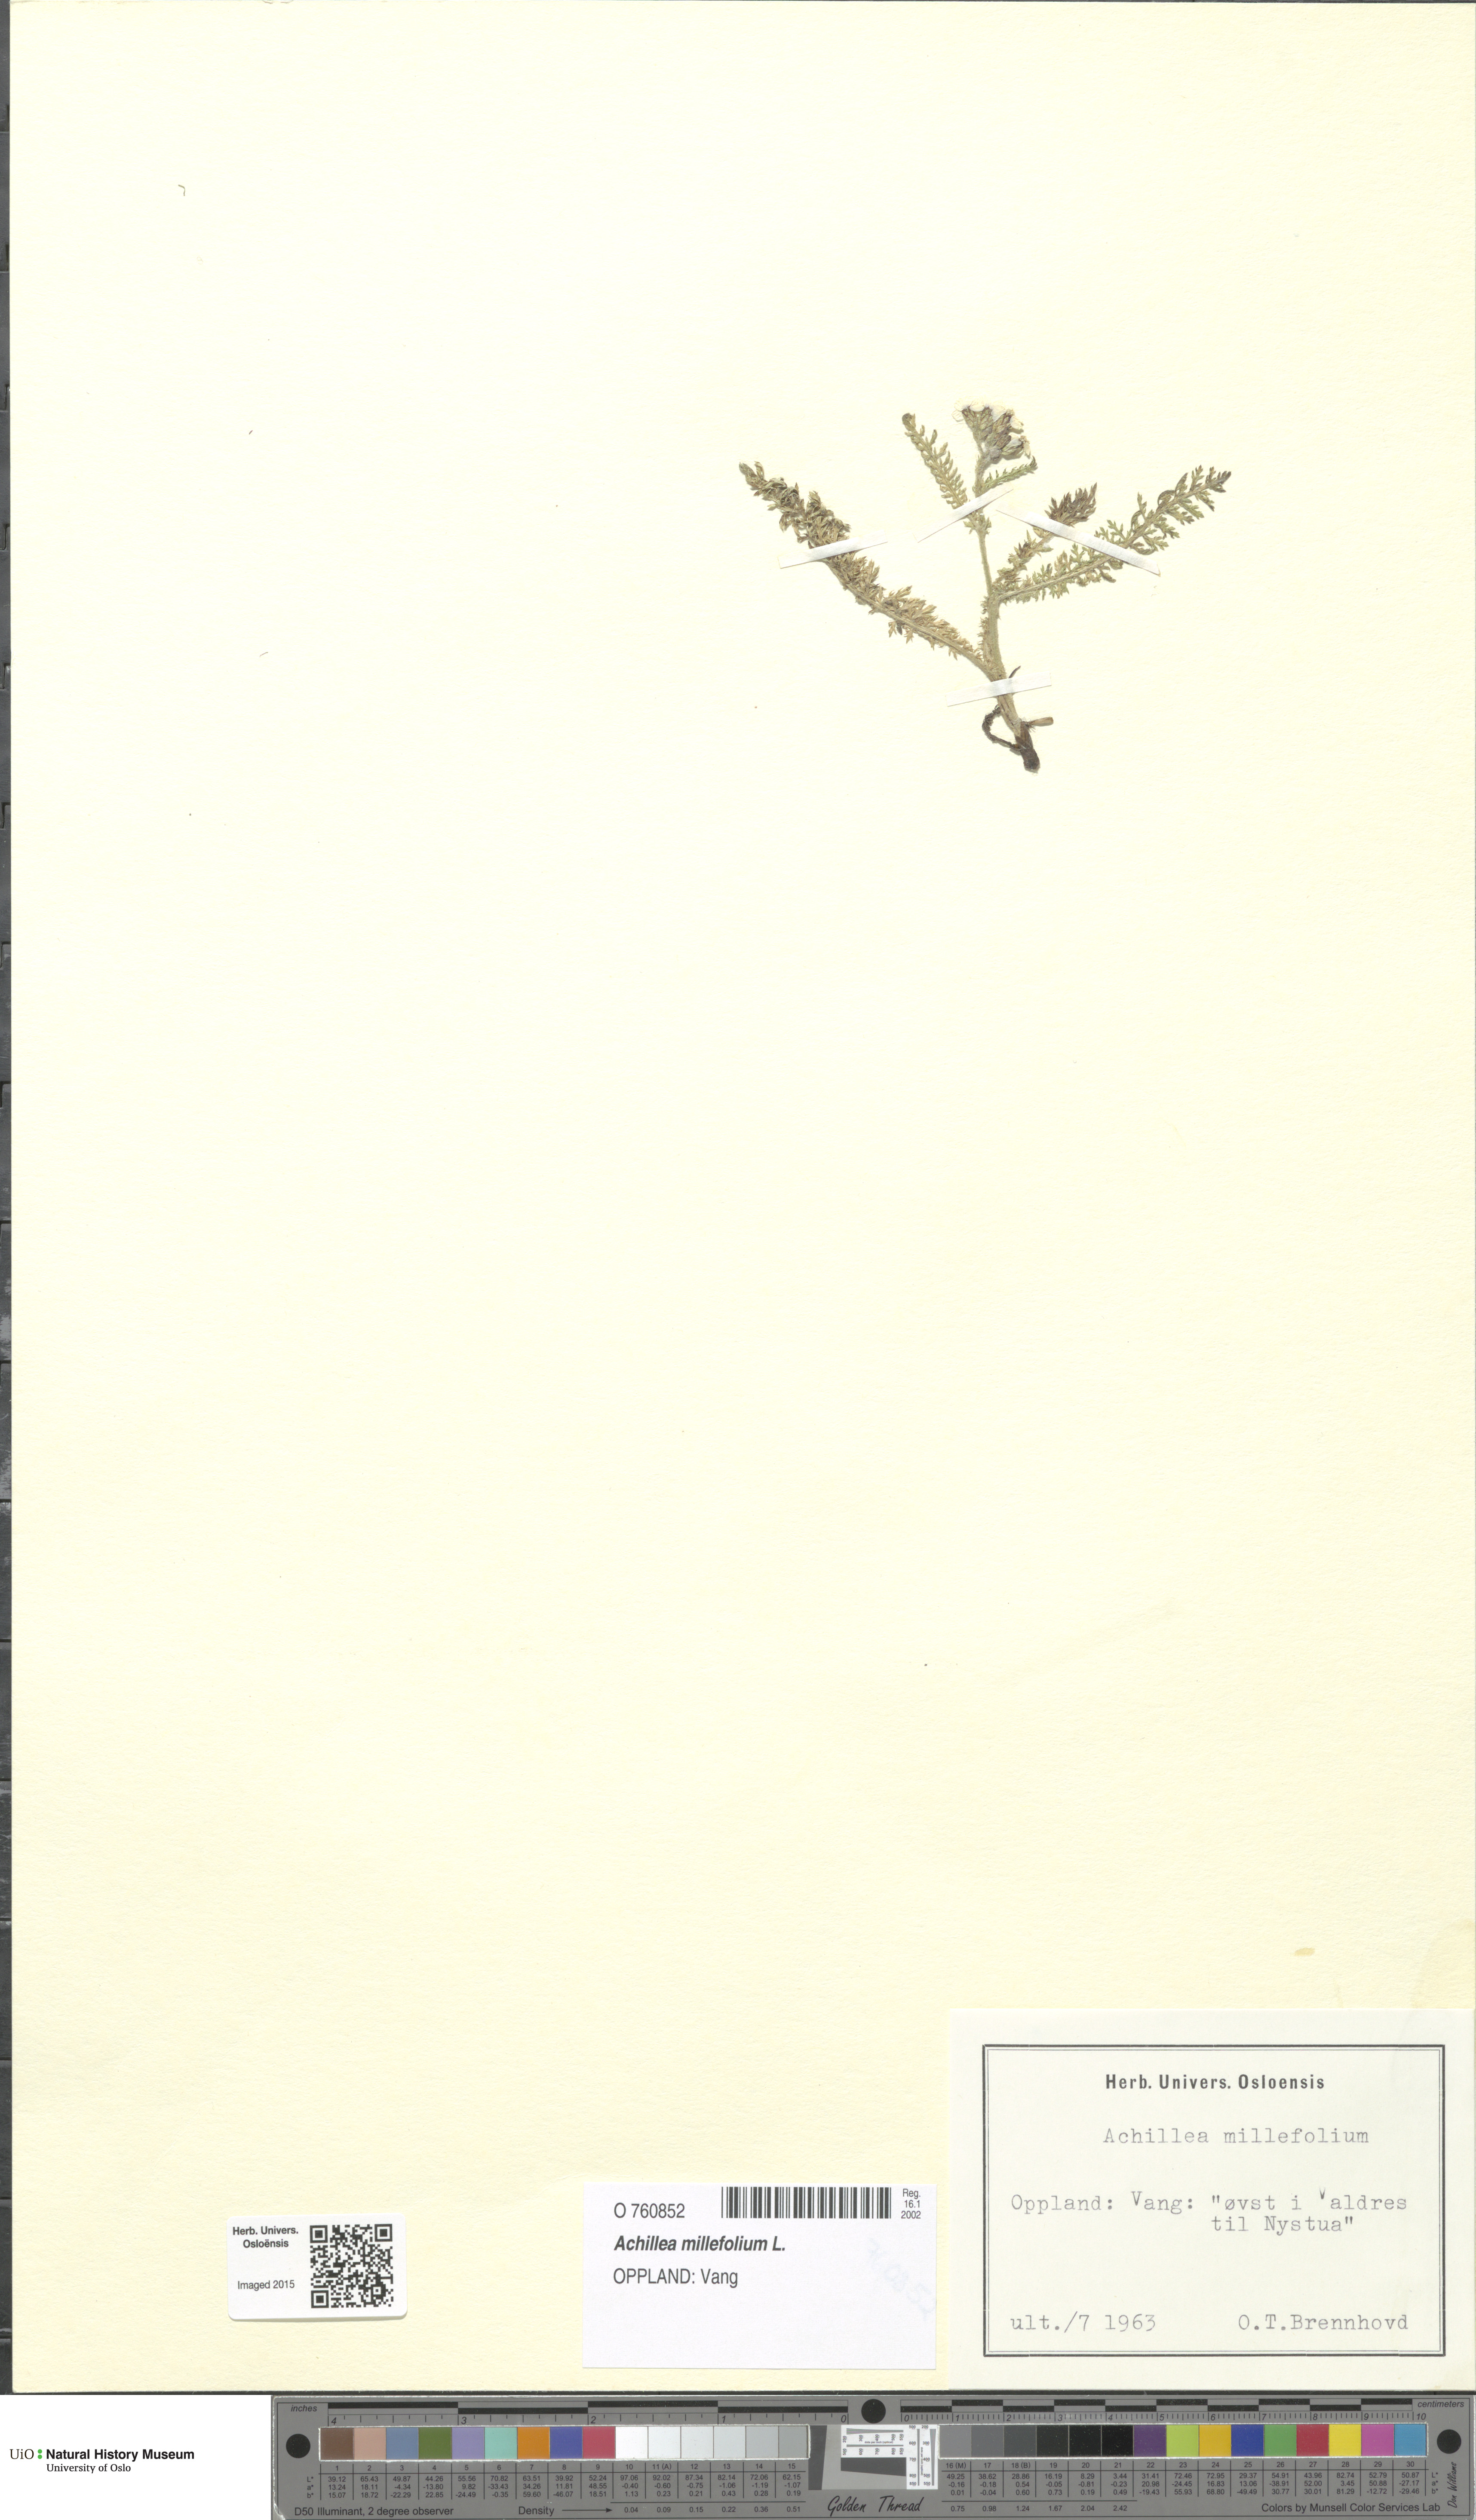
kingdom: Plantae
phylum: Tracheophyta
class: Magnoliopsida
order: Asterales
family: Asteraceae
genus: Achillea
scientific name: Achillea millefolium
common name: Yarrow
